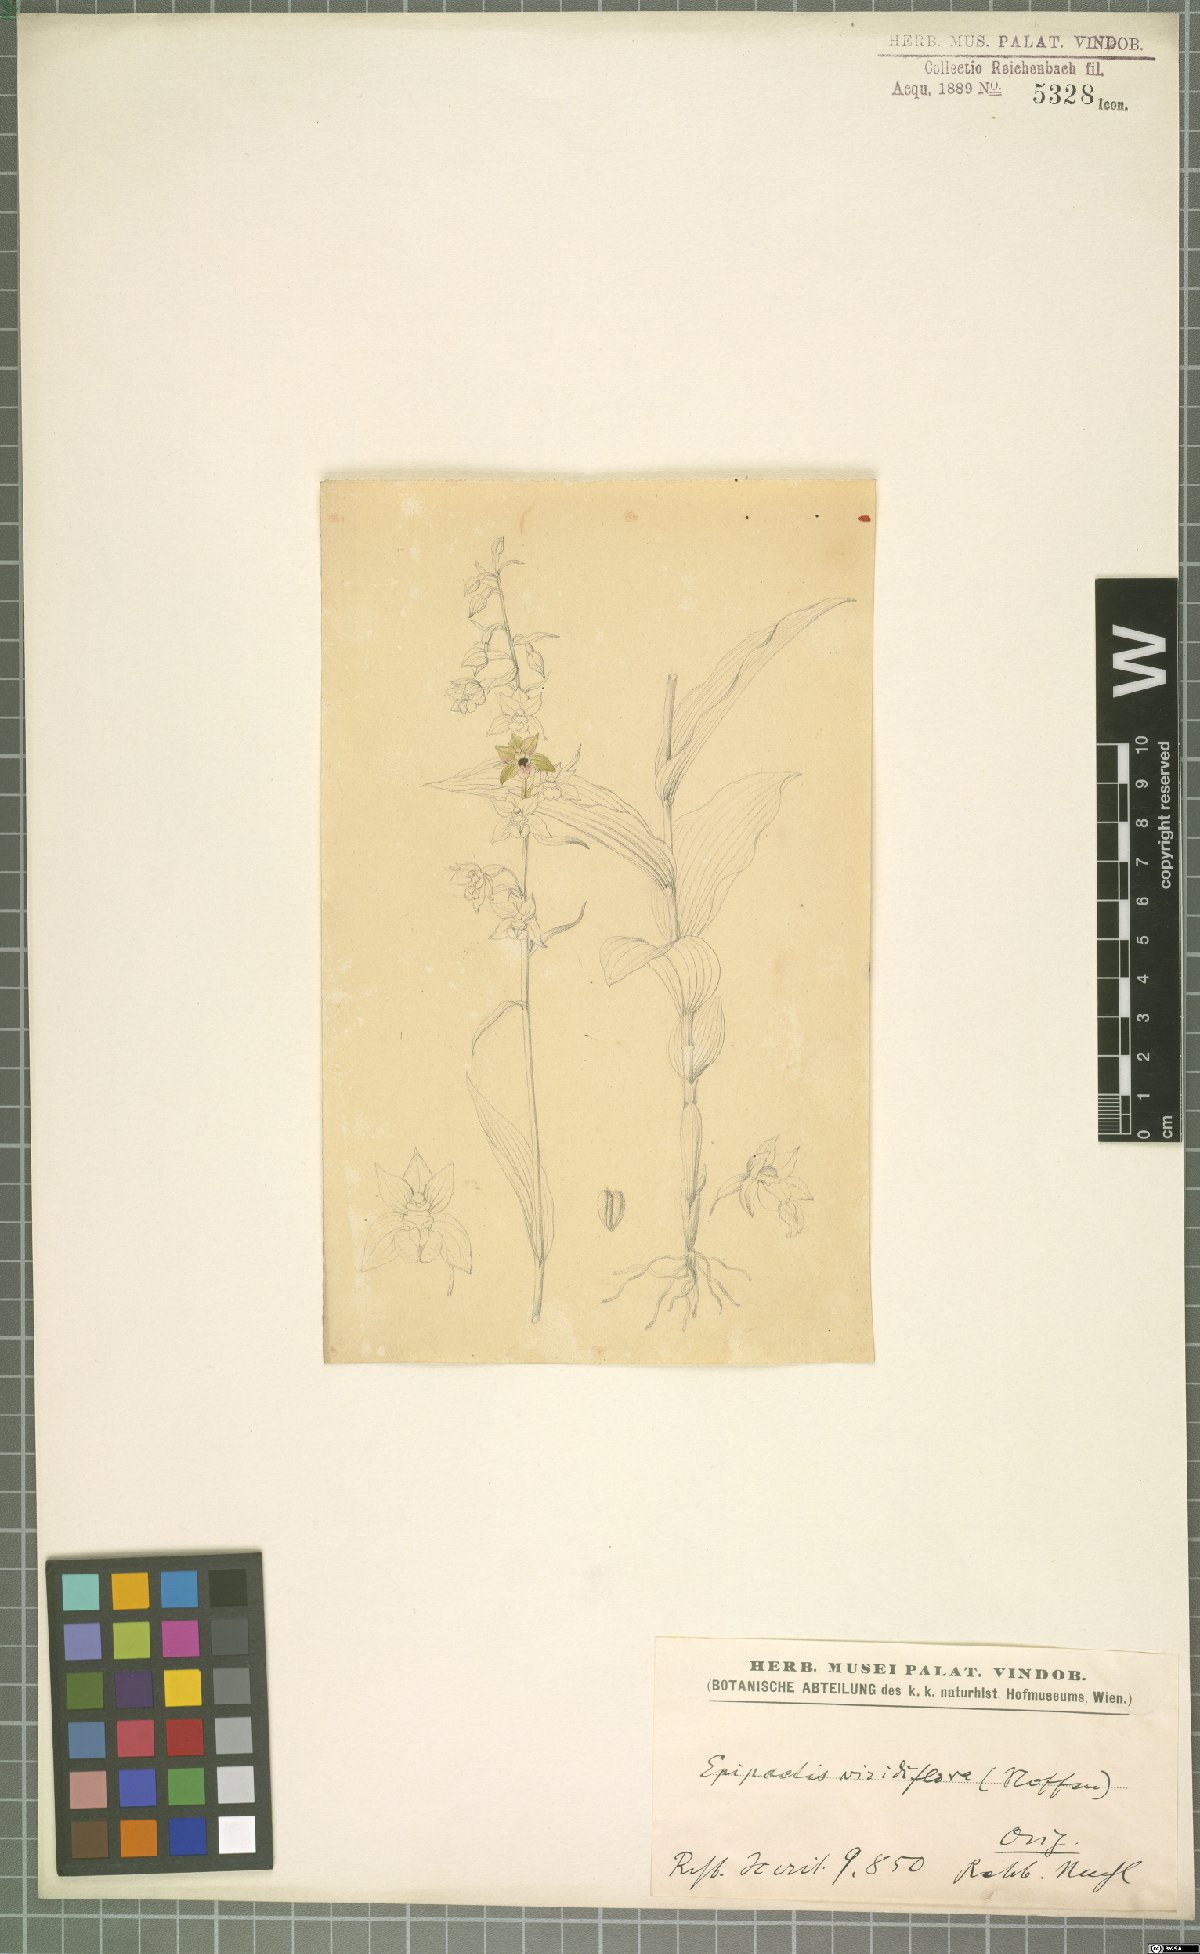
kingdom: Plantae
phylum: Tracheophyta
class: Liliopsida
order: Asparagales
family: Orchidaceae
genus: Epipactis
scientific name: Epipactis purpurata
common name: Violet helleborine
